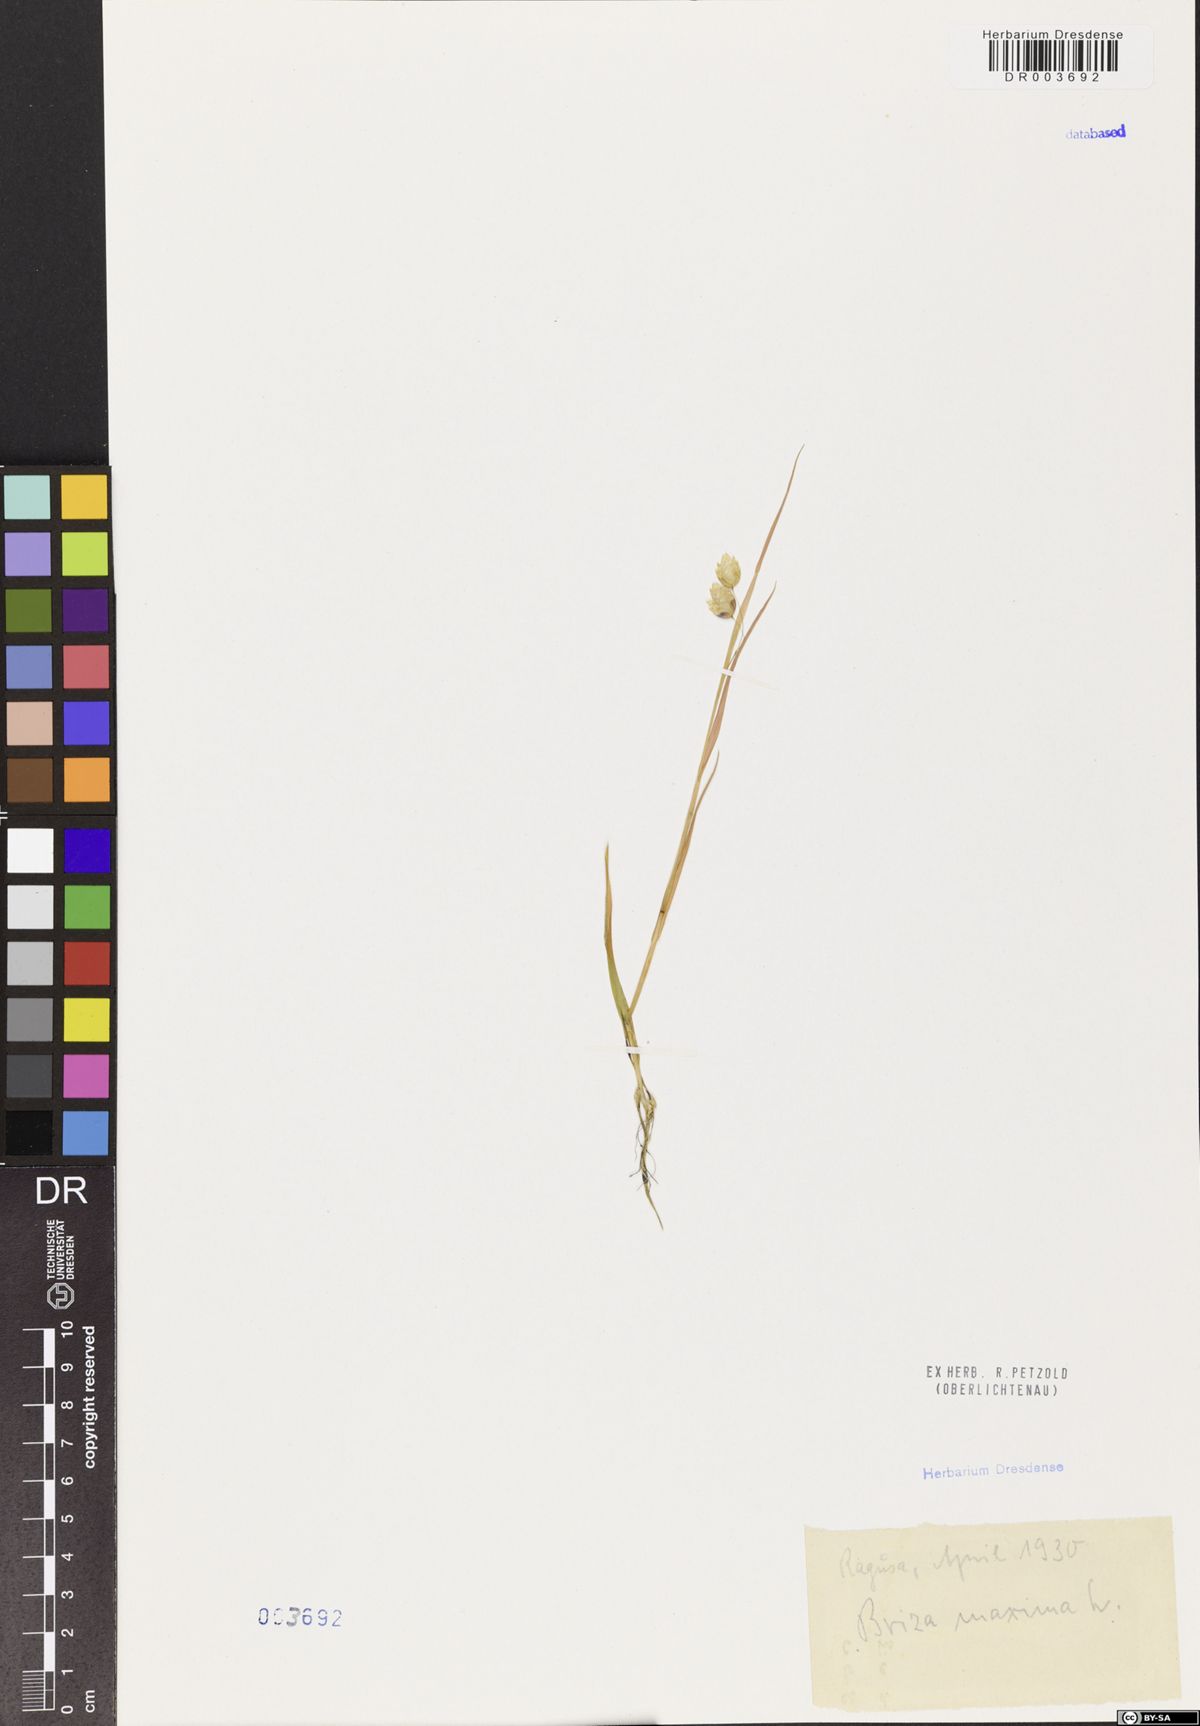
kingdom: Plantae
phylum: Tracheophyta
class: Liliopsida
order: Poales
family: Poaceae
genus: Briza
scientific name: Briza maxima
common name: Big quakinggrass
